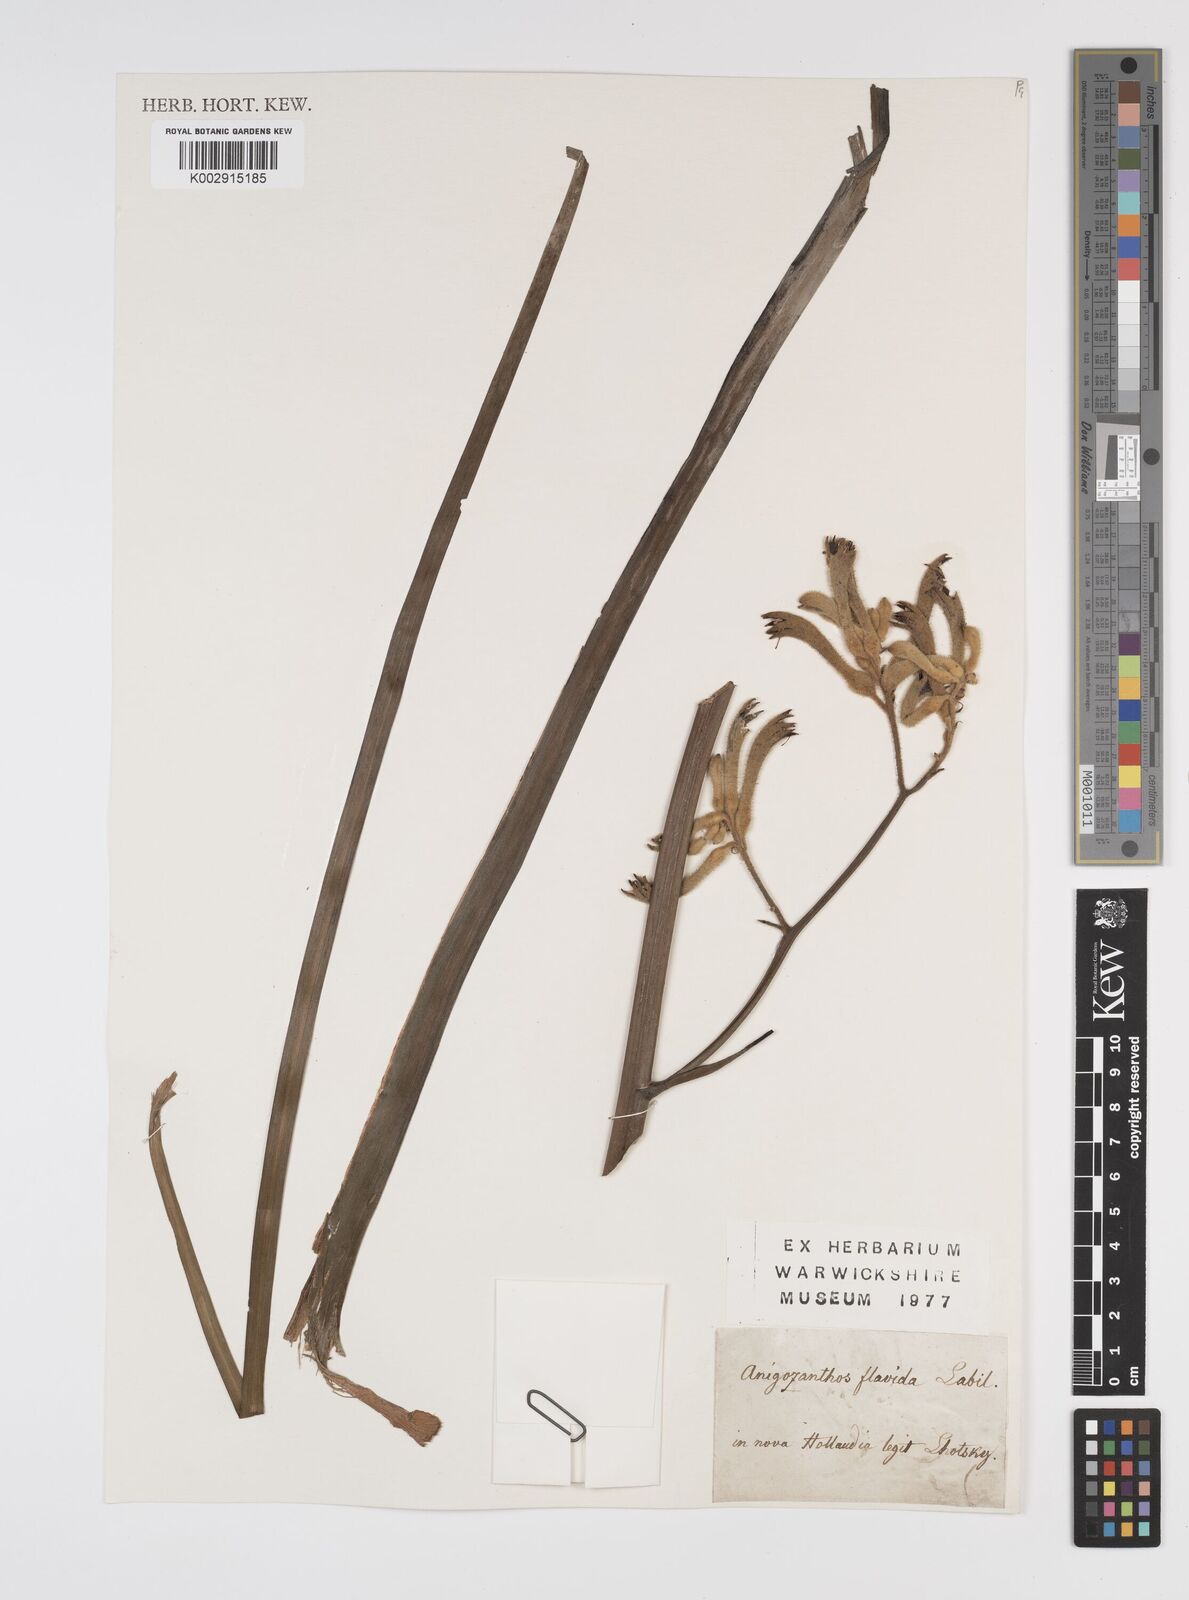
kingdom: Plantae
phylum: Tracheophyta
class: Liliopsida
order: Commelinales
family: Haemodoraceae
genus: Anigozanthos
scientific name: Anigozanthos flavidus
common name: Evergreen kangaroo-paw
